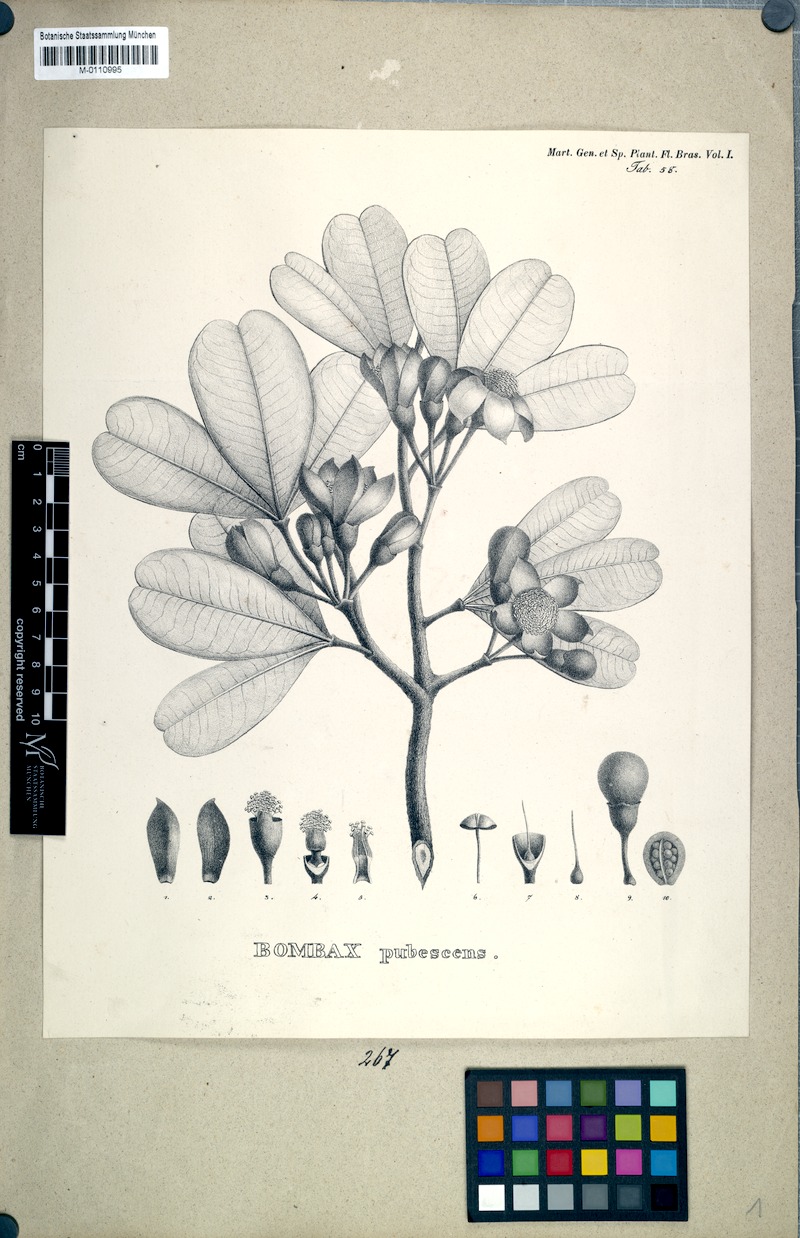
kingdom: Plantae
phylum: Tracheophyta
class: Magnoliopsida
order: Malvales
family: Malvaceae
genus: Eriotheca
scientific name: Eriotheca pubescens
